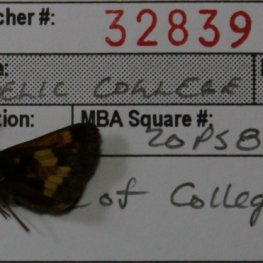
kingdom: Animalia
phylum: Arthropoda
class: Insecta
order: Lepidoptera
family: Hesperiidae
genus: Lon
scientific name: Lon hobomok
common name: Hobomok Skipper
